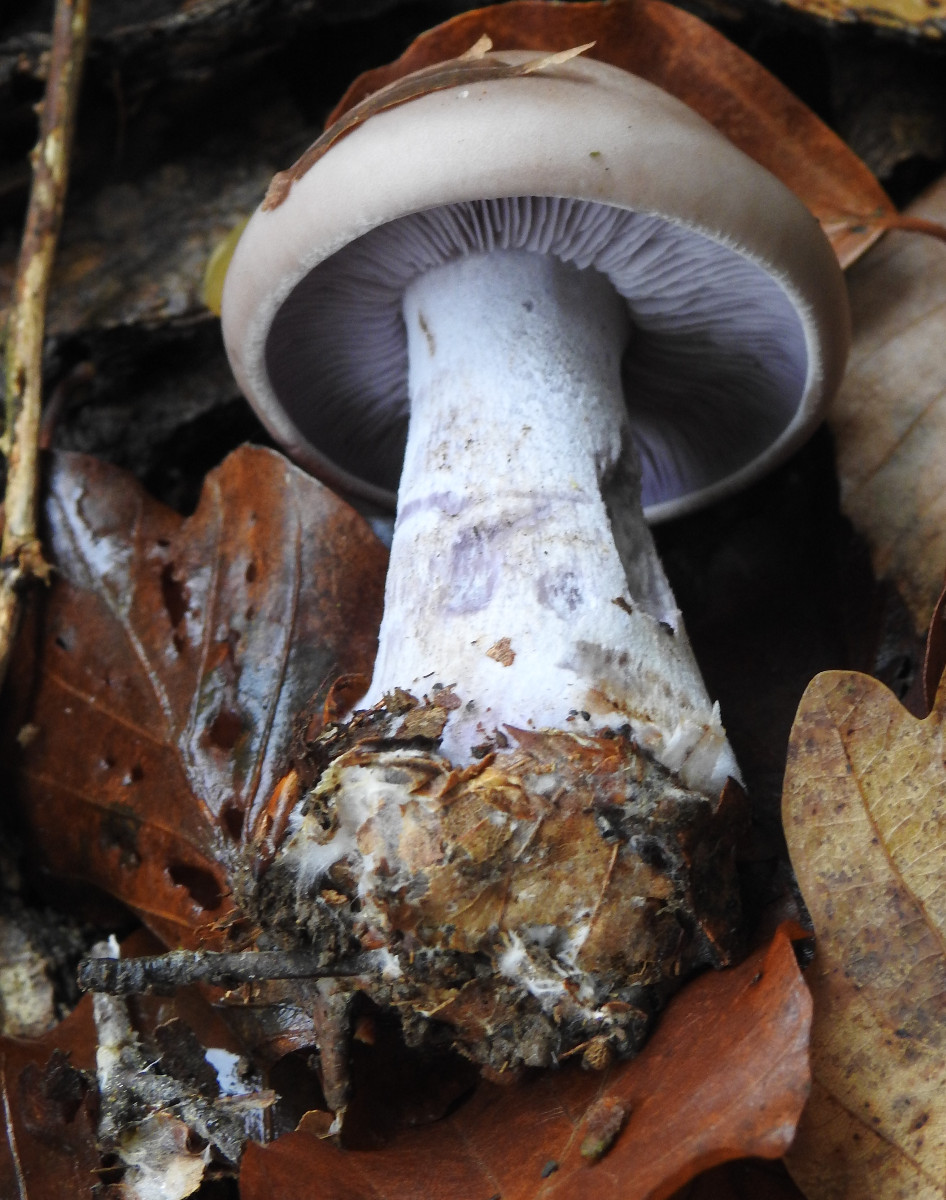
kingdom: Fungi
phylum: Basidiomycota
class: Agaricomycetes
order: Agaricales
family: Tricholomataceae
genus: Lepista
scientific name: Lepista nuda
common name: violet hekseringshat
